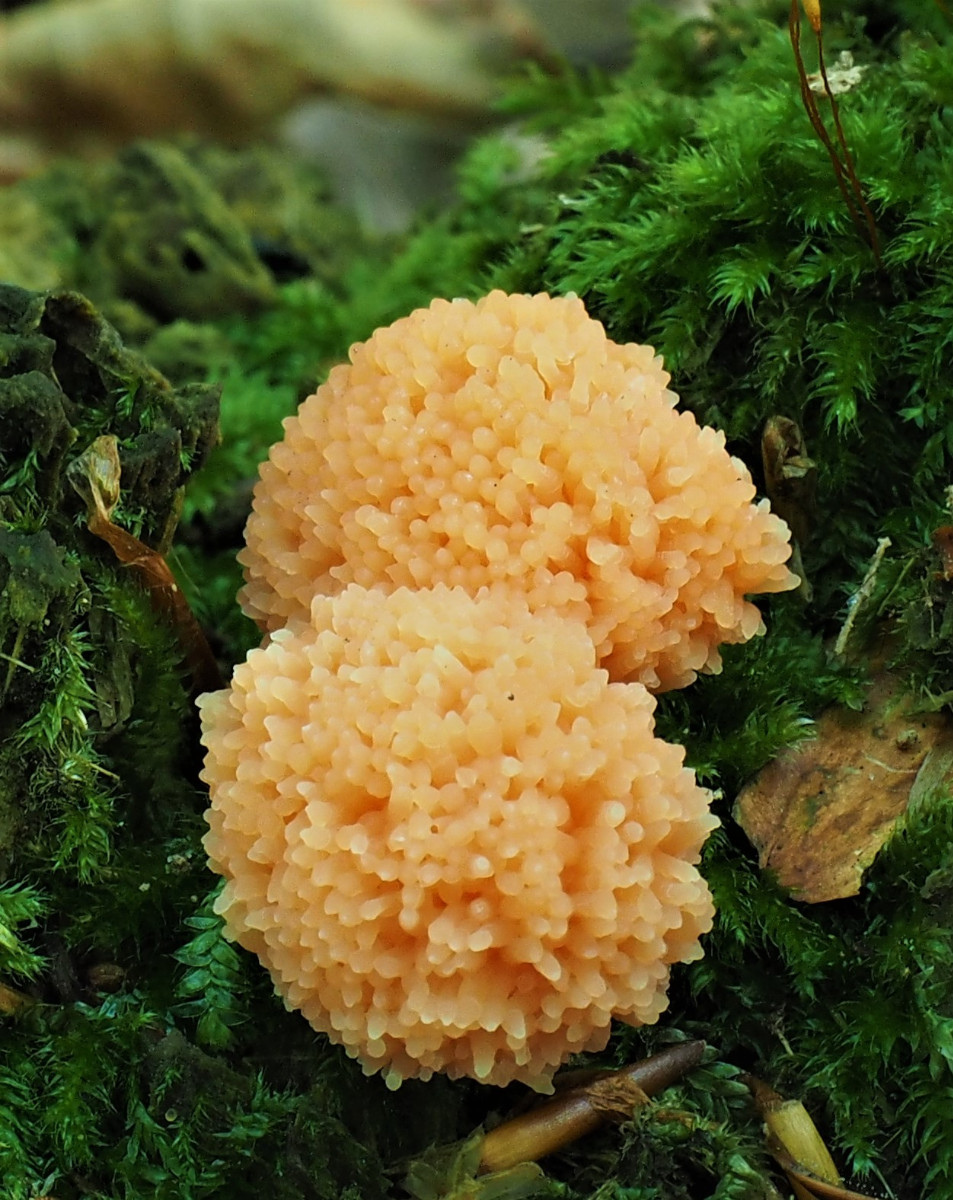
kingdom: Protozoa
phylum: Mycetozoa
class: Myxomycetes
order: Cribrariales
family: Tubiferaceae
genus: Tubifera
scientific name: Tubifera ferruginosa
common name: kanel-støvrør
